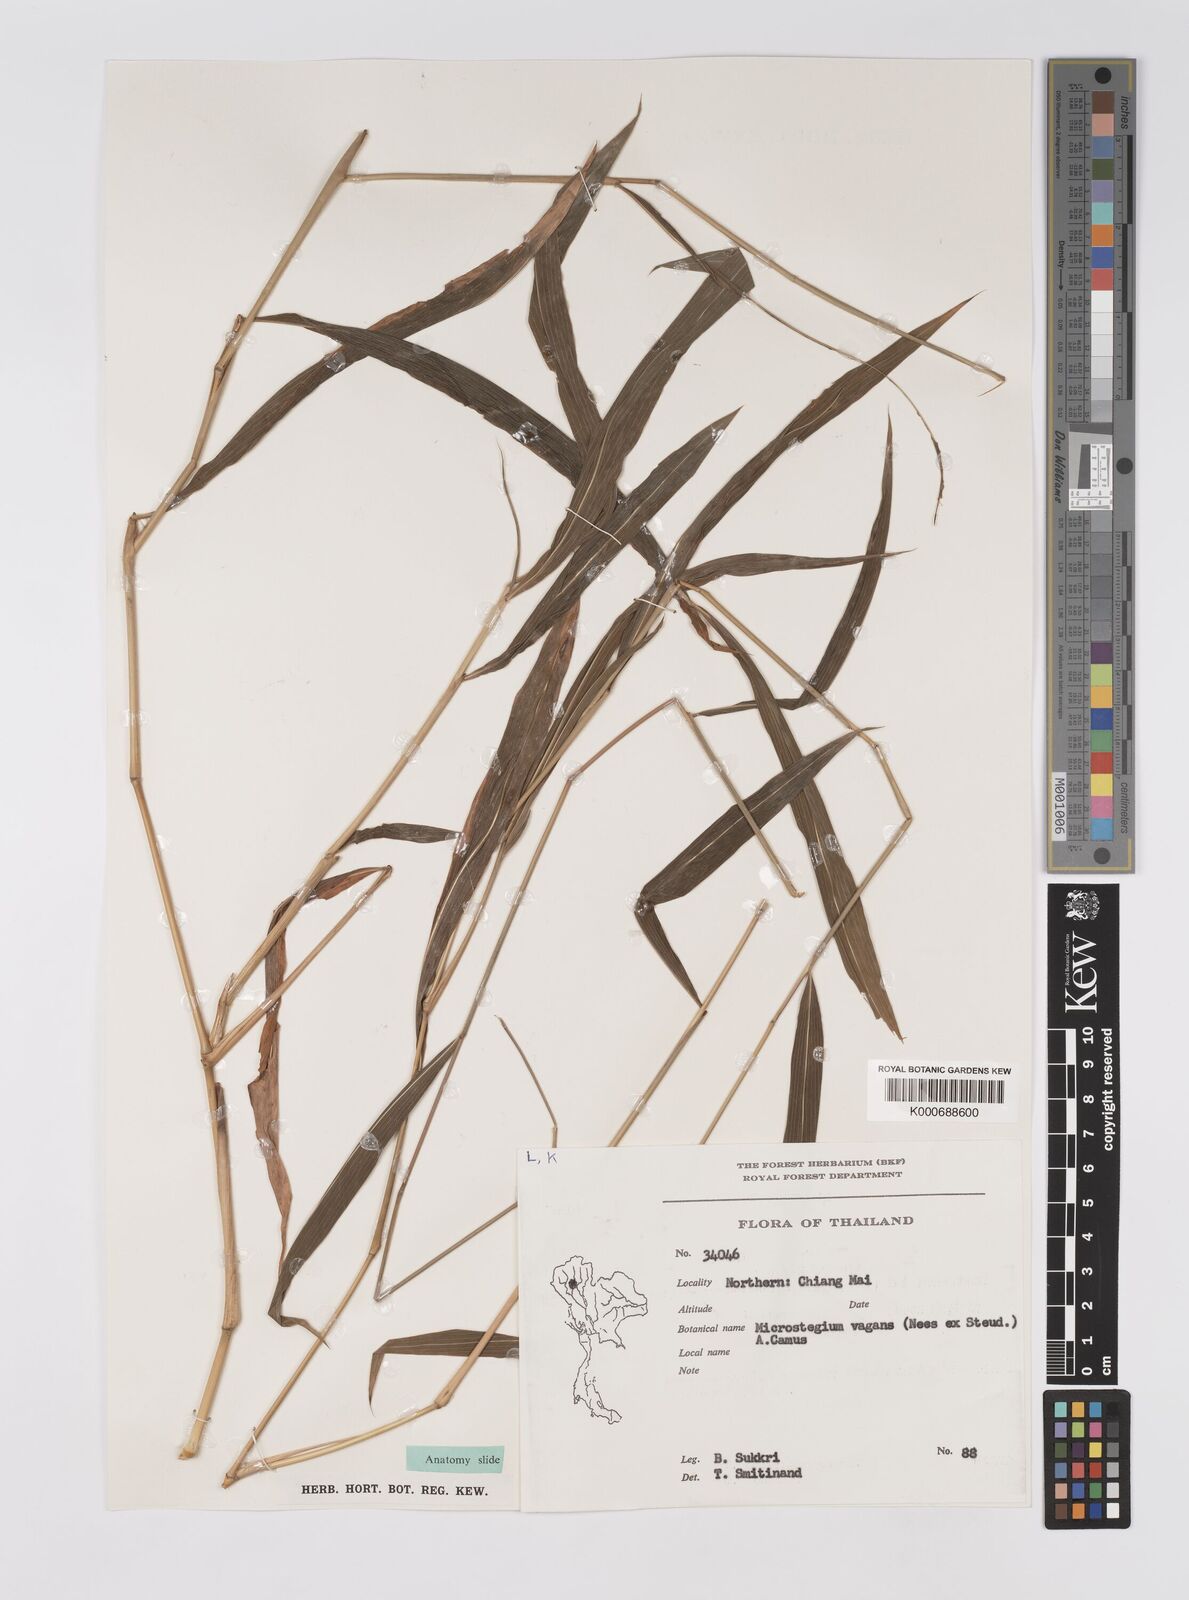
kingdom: Plantae
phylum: Tracheophyta
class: Liliopsida
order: Poales
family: Poaceae
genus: Microstegium
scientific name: Microstegium fasciculatum
